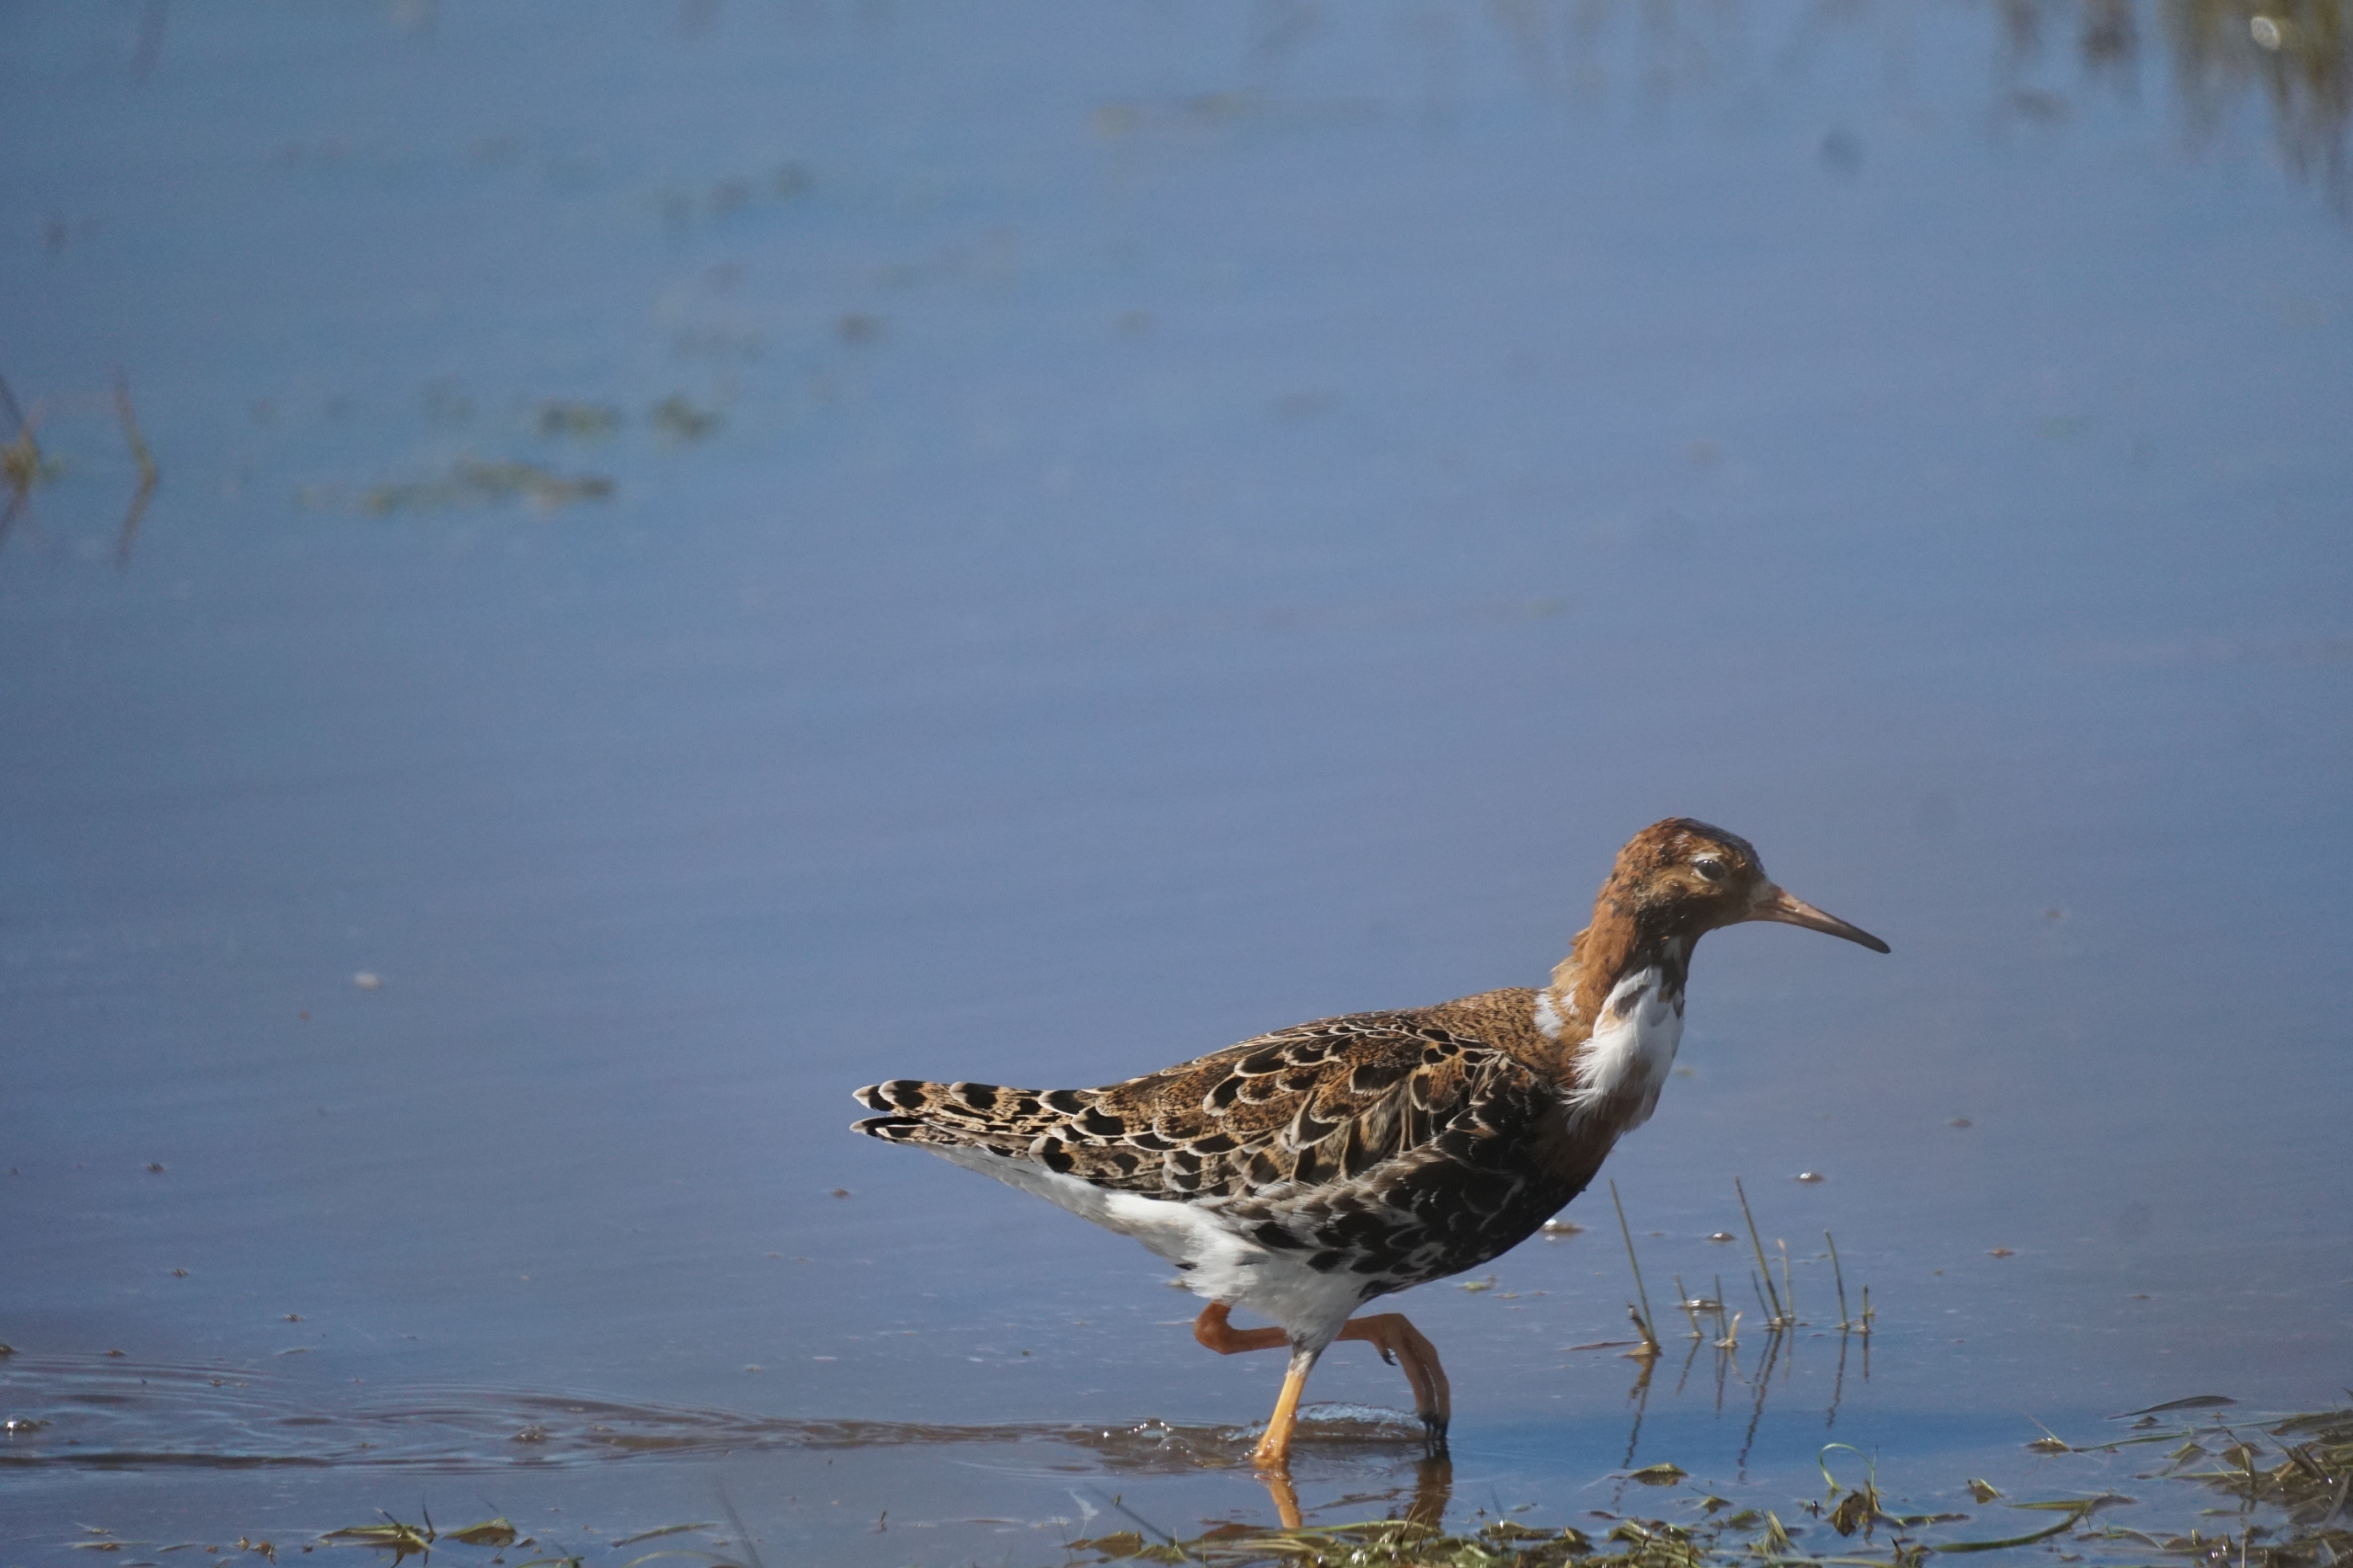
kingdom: Animalia
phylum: Chordata
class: Aves
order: Charadriiformes
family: Scolopacidae
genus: Calidris
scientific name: Calidris pugnax
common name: Brushane
